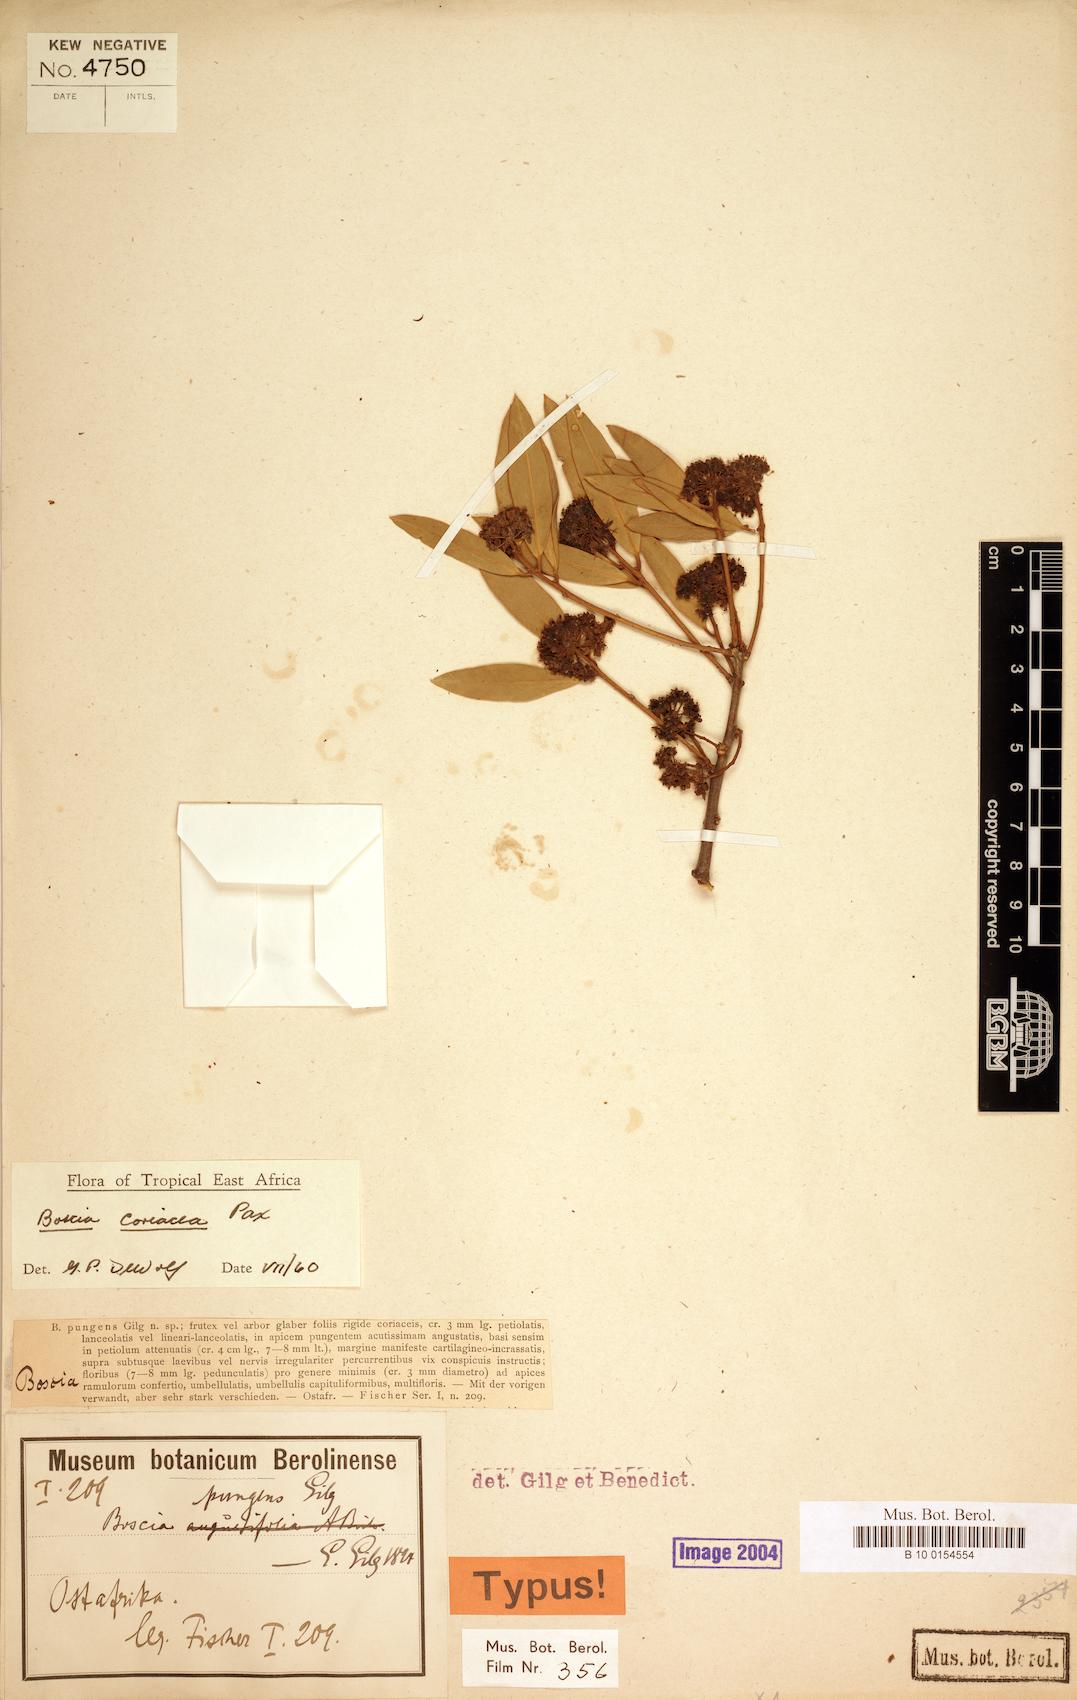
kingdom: Plantae
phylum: Tracheophyta
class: Magnoliopsida
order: Brassicales
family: Capparaceae
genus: Boscia
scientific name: Boscia coriacea
